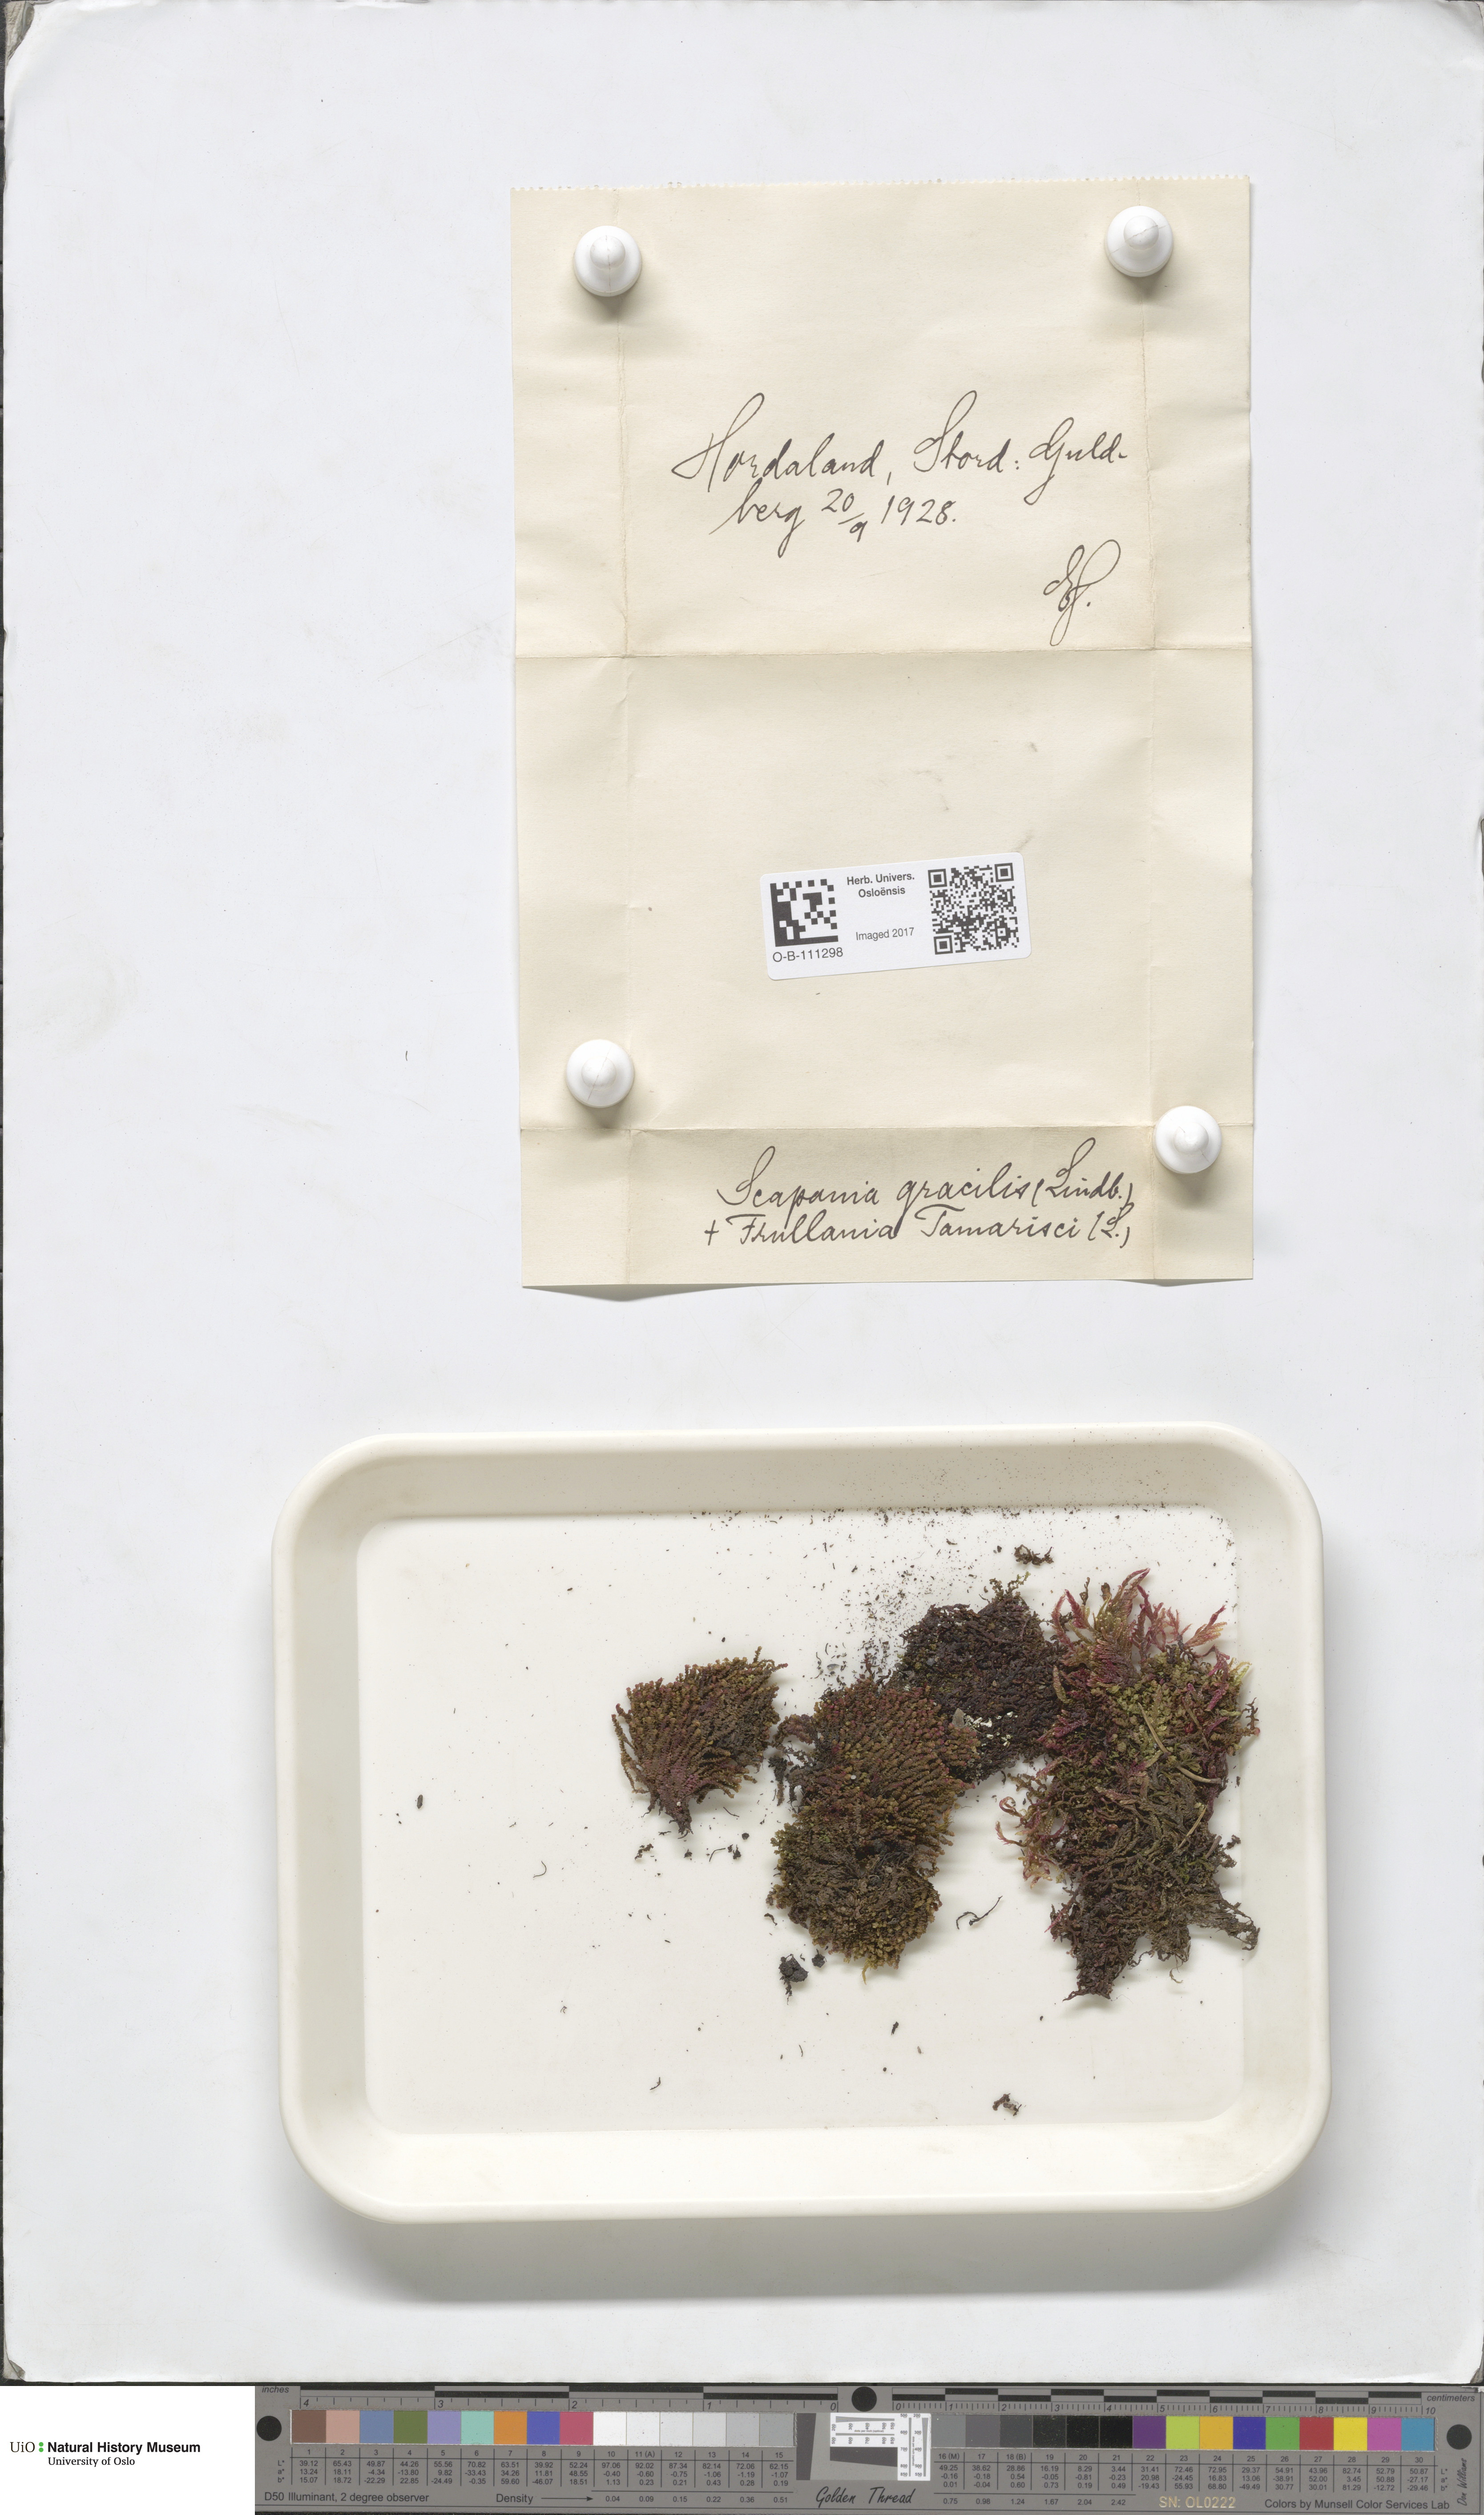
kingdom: Plantae
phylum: Marchantiophyta
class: Jungermanniopsida
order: Jungermanniales
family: Scapaniaceae
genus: Scapania
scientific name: Scapania gracilis
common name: Western earwort
